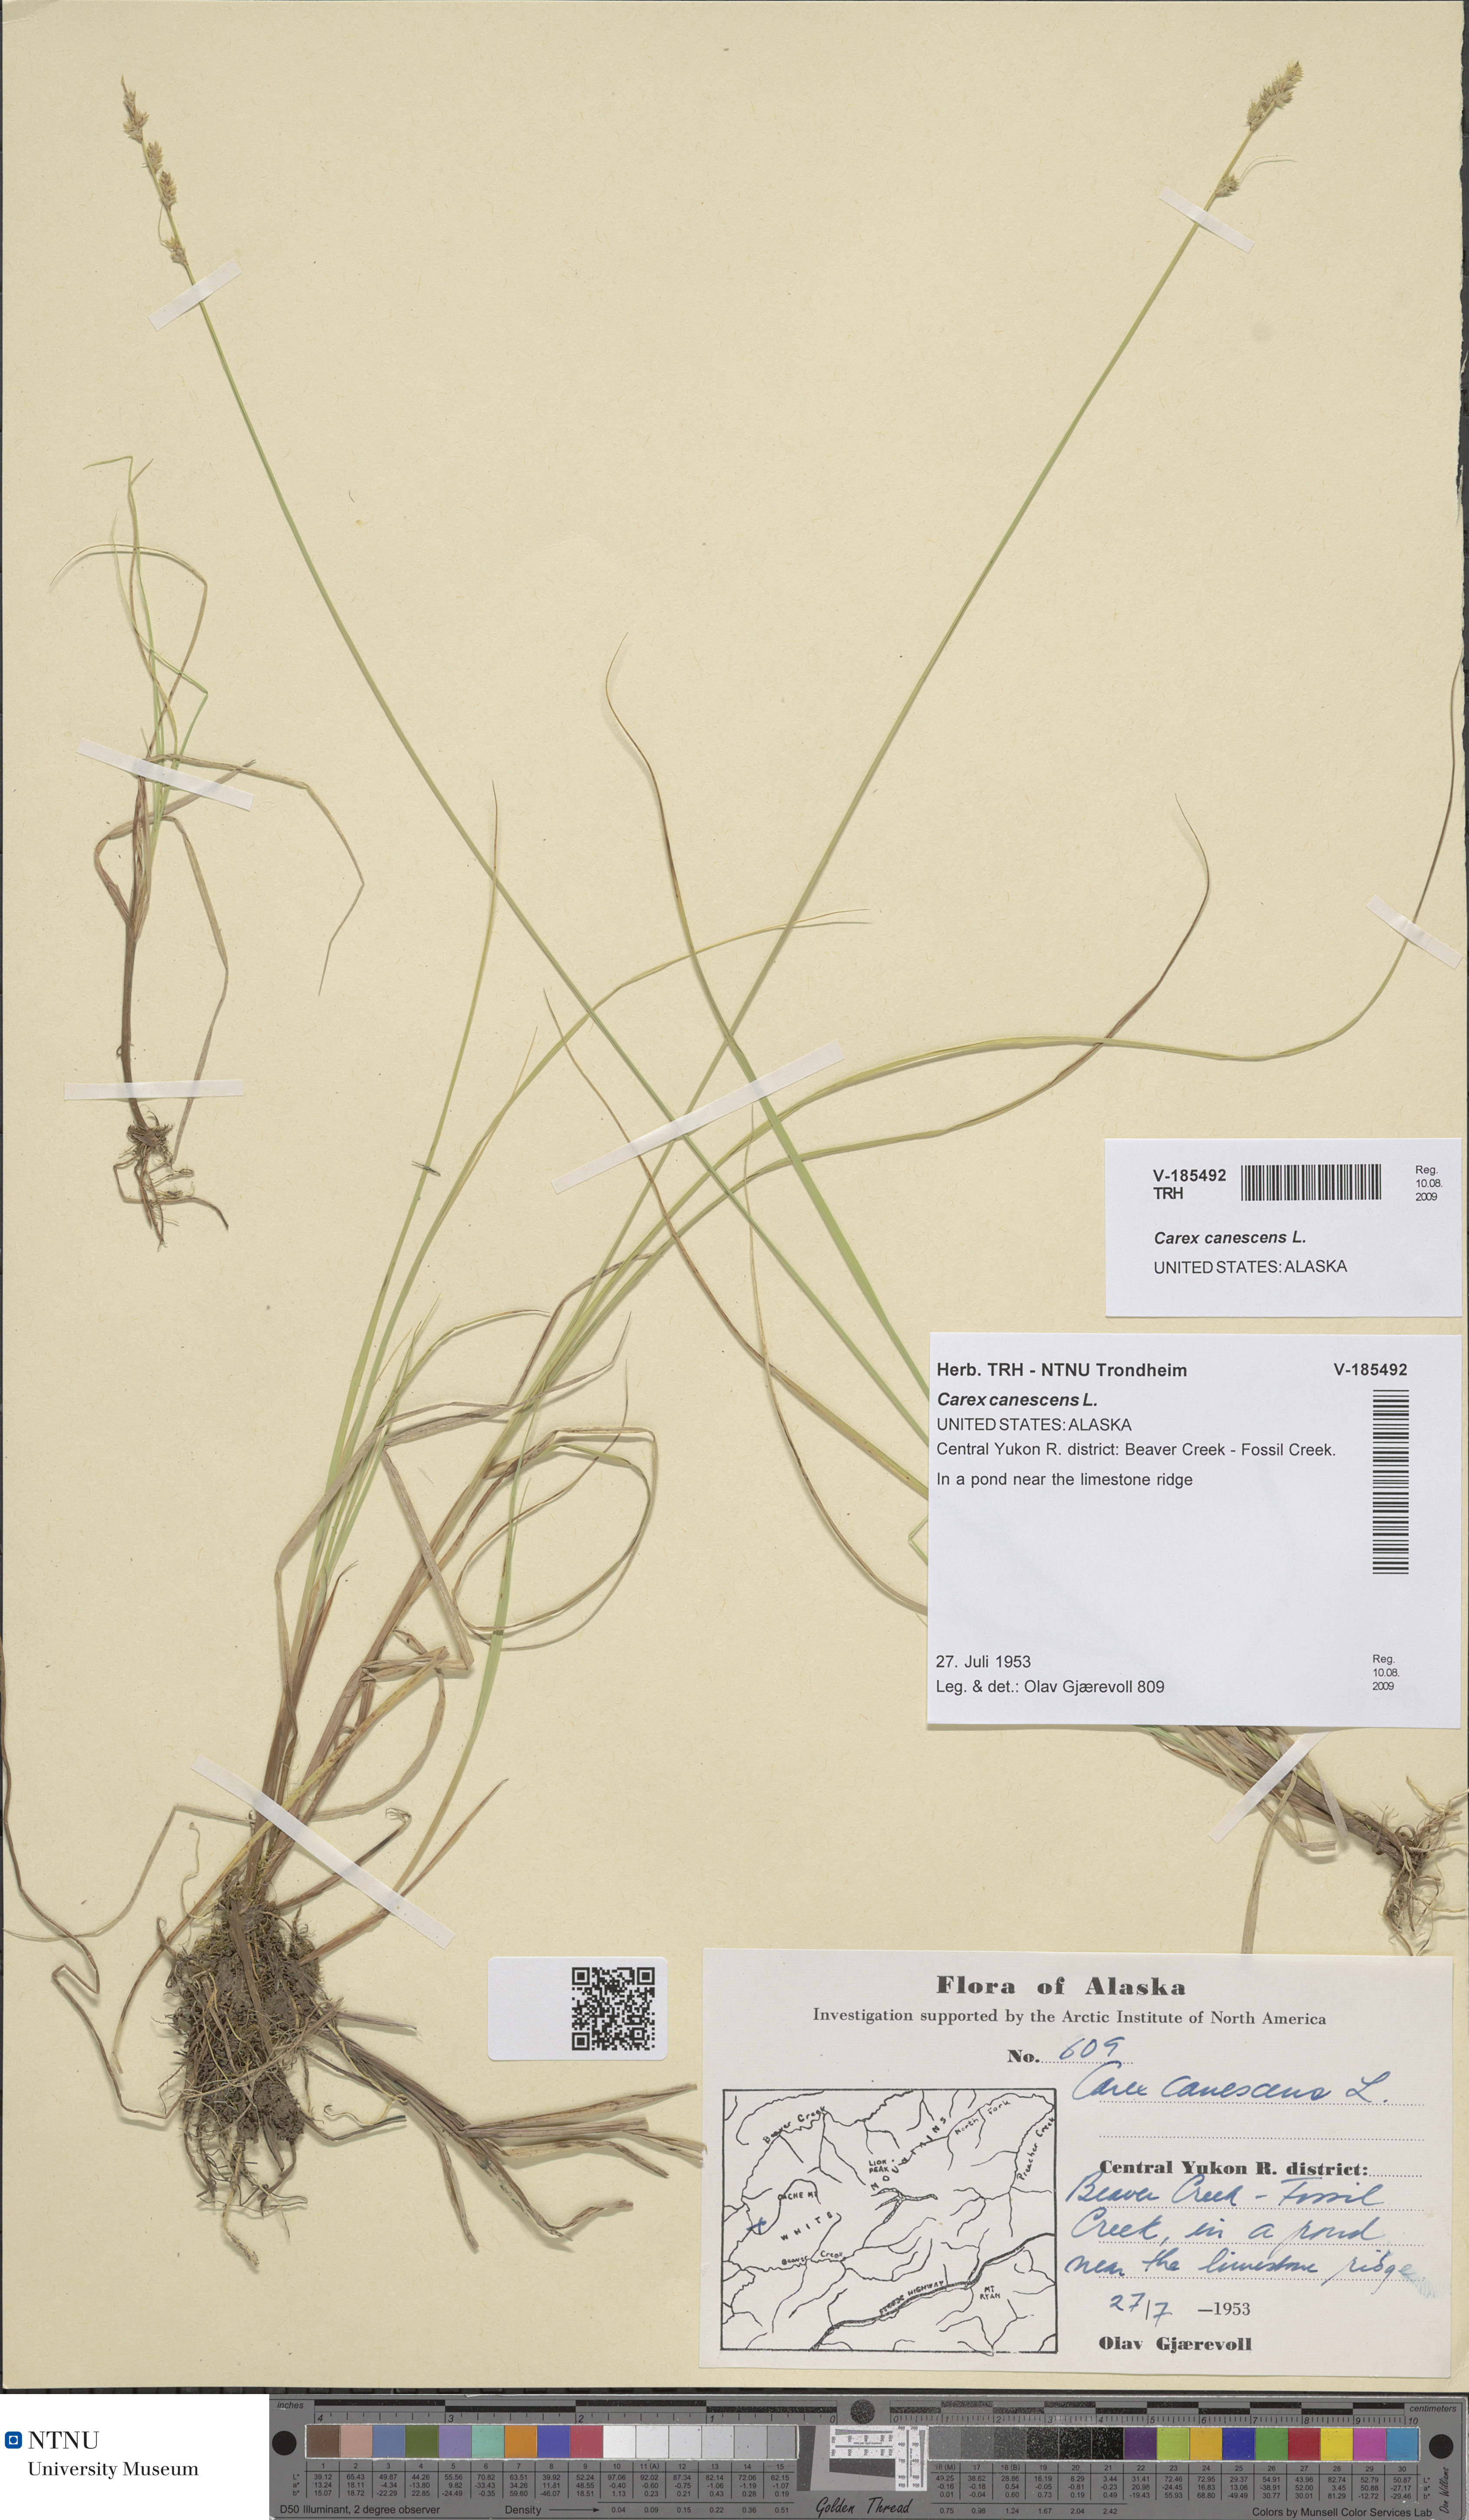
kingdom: Plantae
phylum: Tracheophyta
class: Liliopsida
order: Poales
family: Cyperaceae
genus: Carex
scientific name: Carex canescens
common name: White sedge
